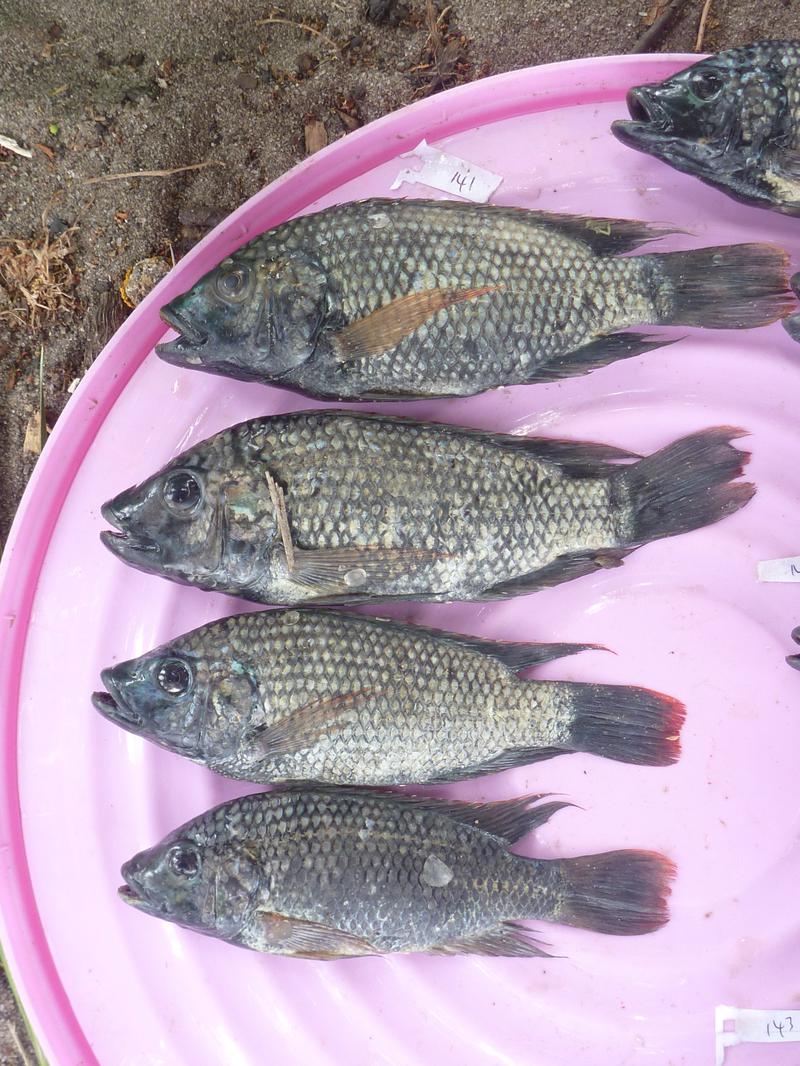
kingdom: Animalia
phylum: Chordata
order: Perciformes
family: Cichlidae
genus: Oreochromis
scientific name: Oreochromis shiranus
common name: Chilwa tilapia
